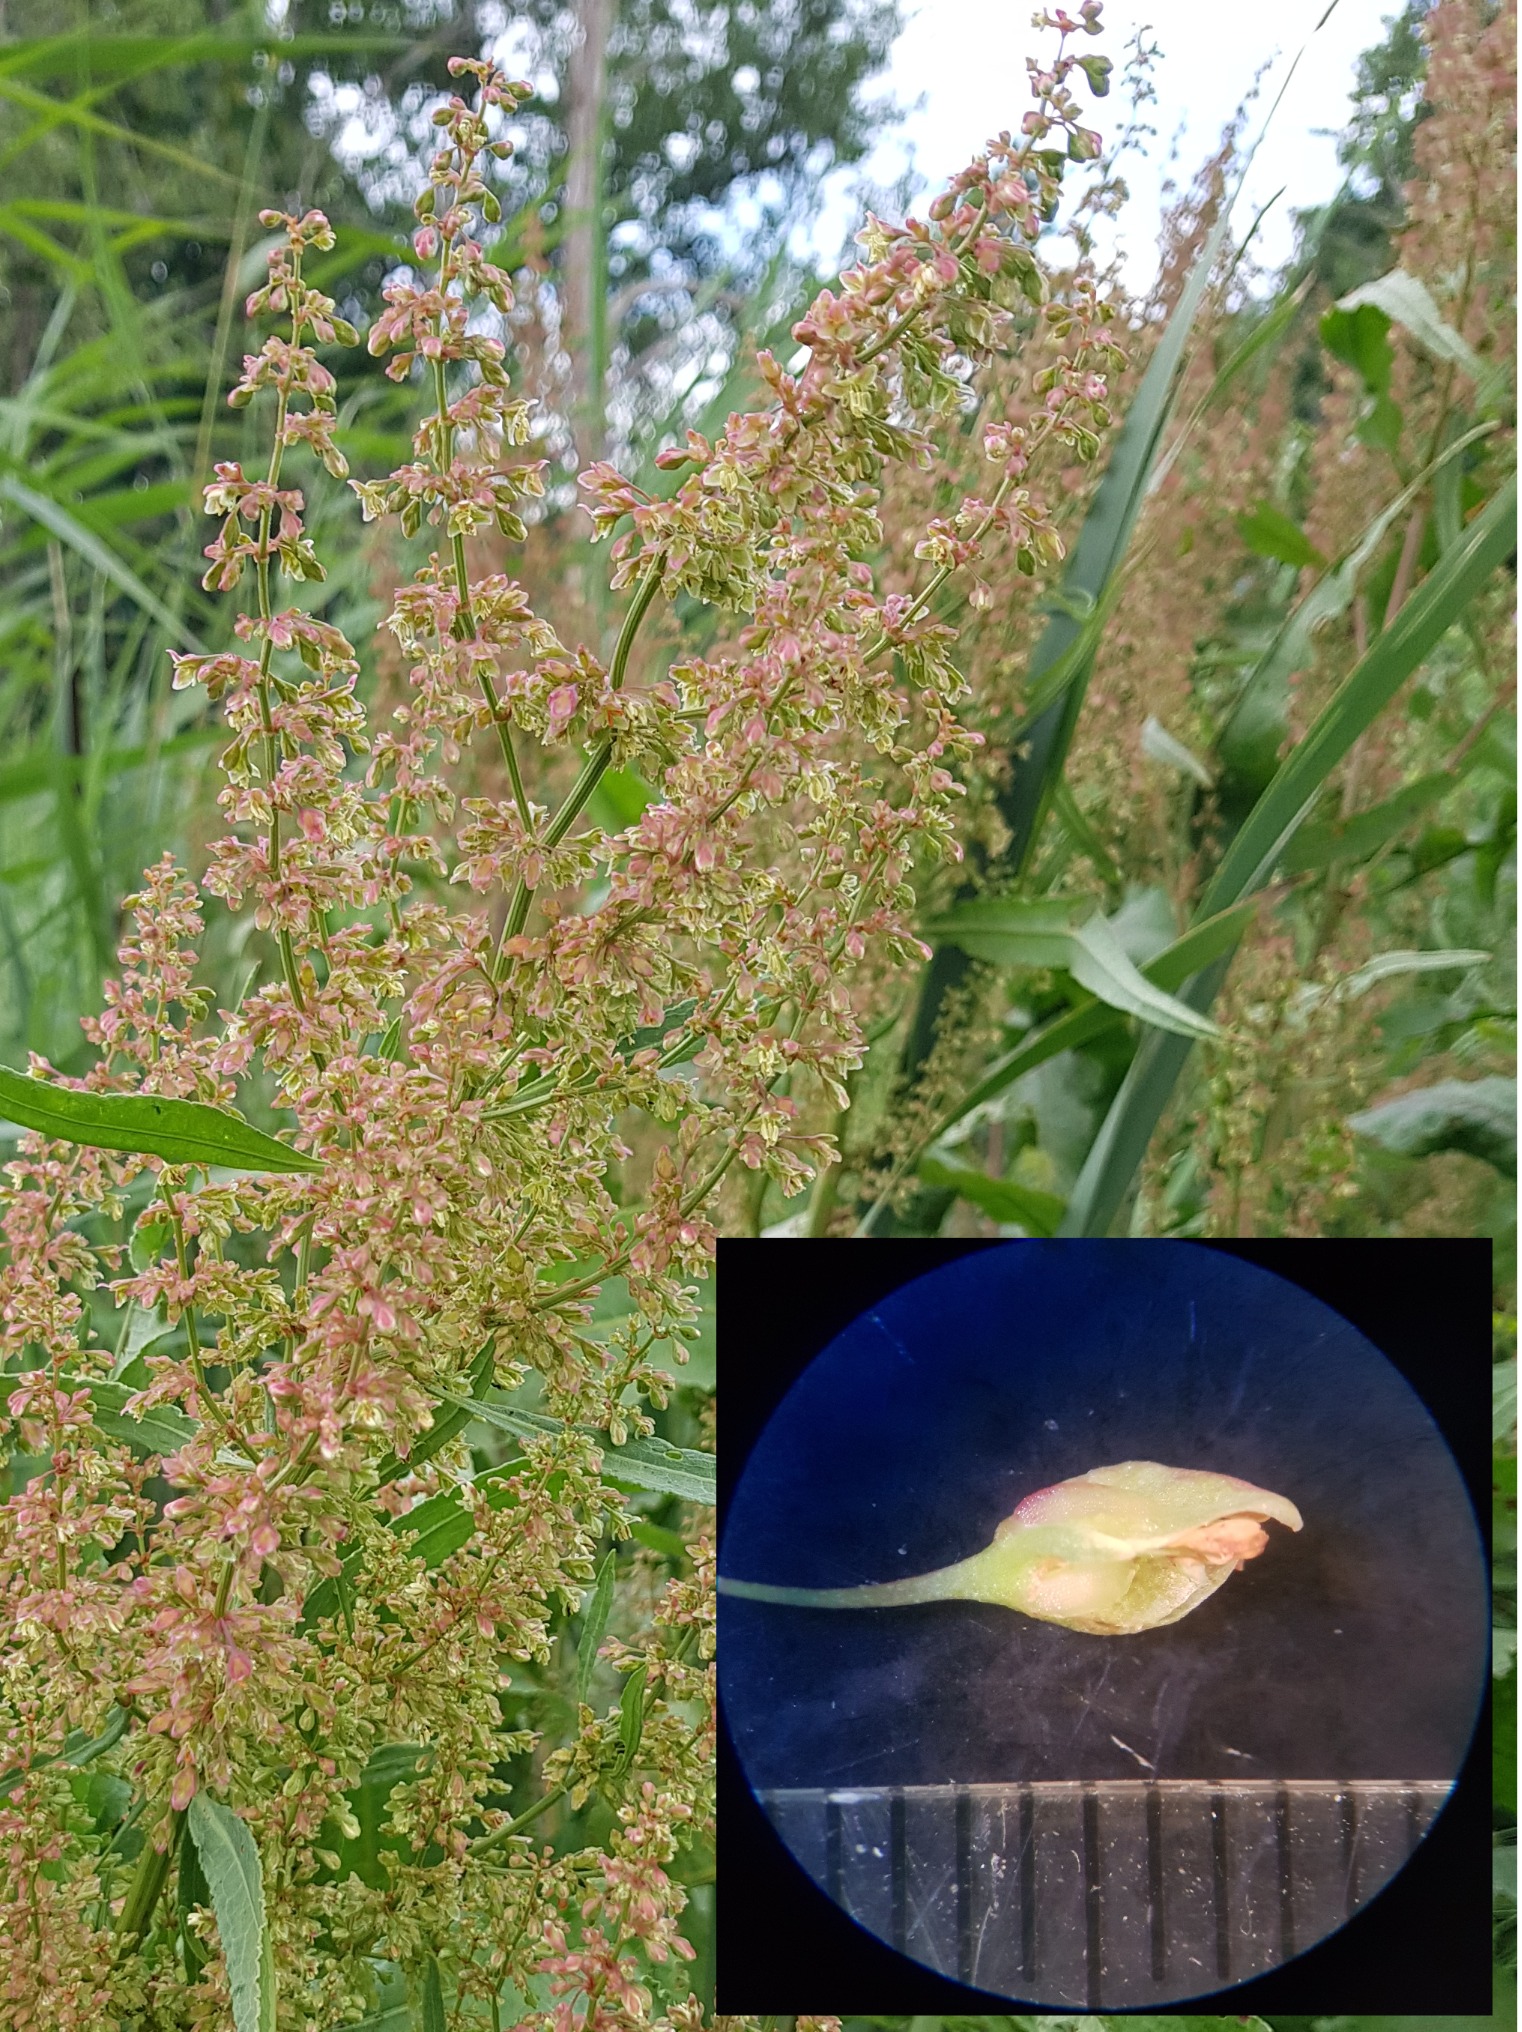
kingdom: Plantae
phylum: Tracheophyta
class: Magnoliopsida
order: Caryophyllales
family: Polygonaceae
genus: Rumex
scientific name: Rumex hydrolapathum
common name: Vand-skræppe
